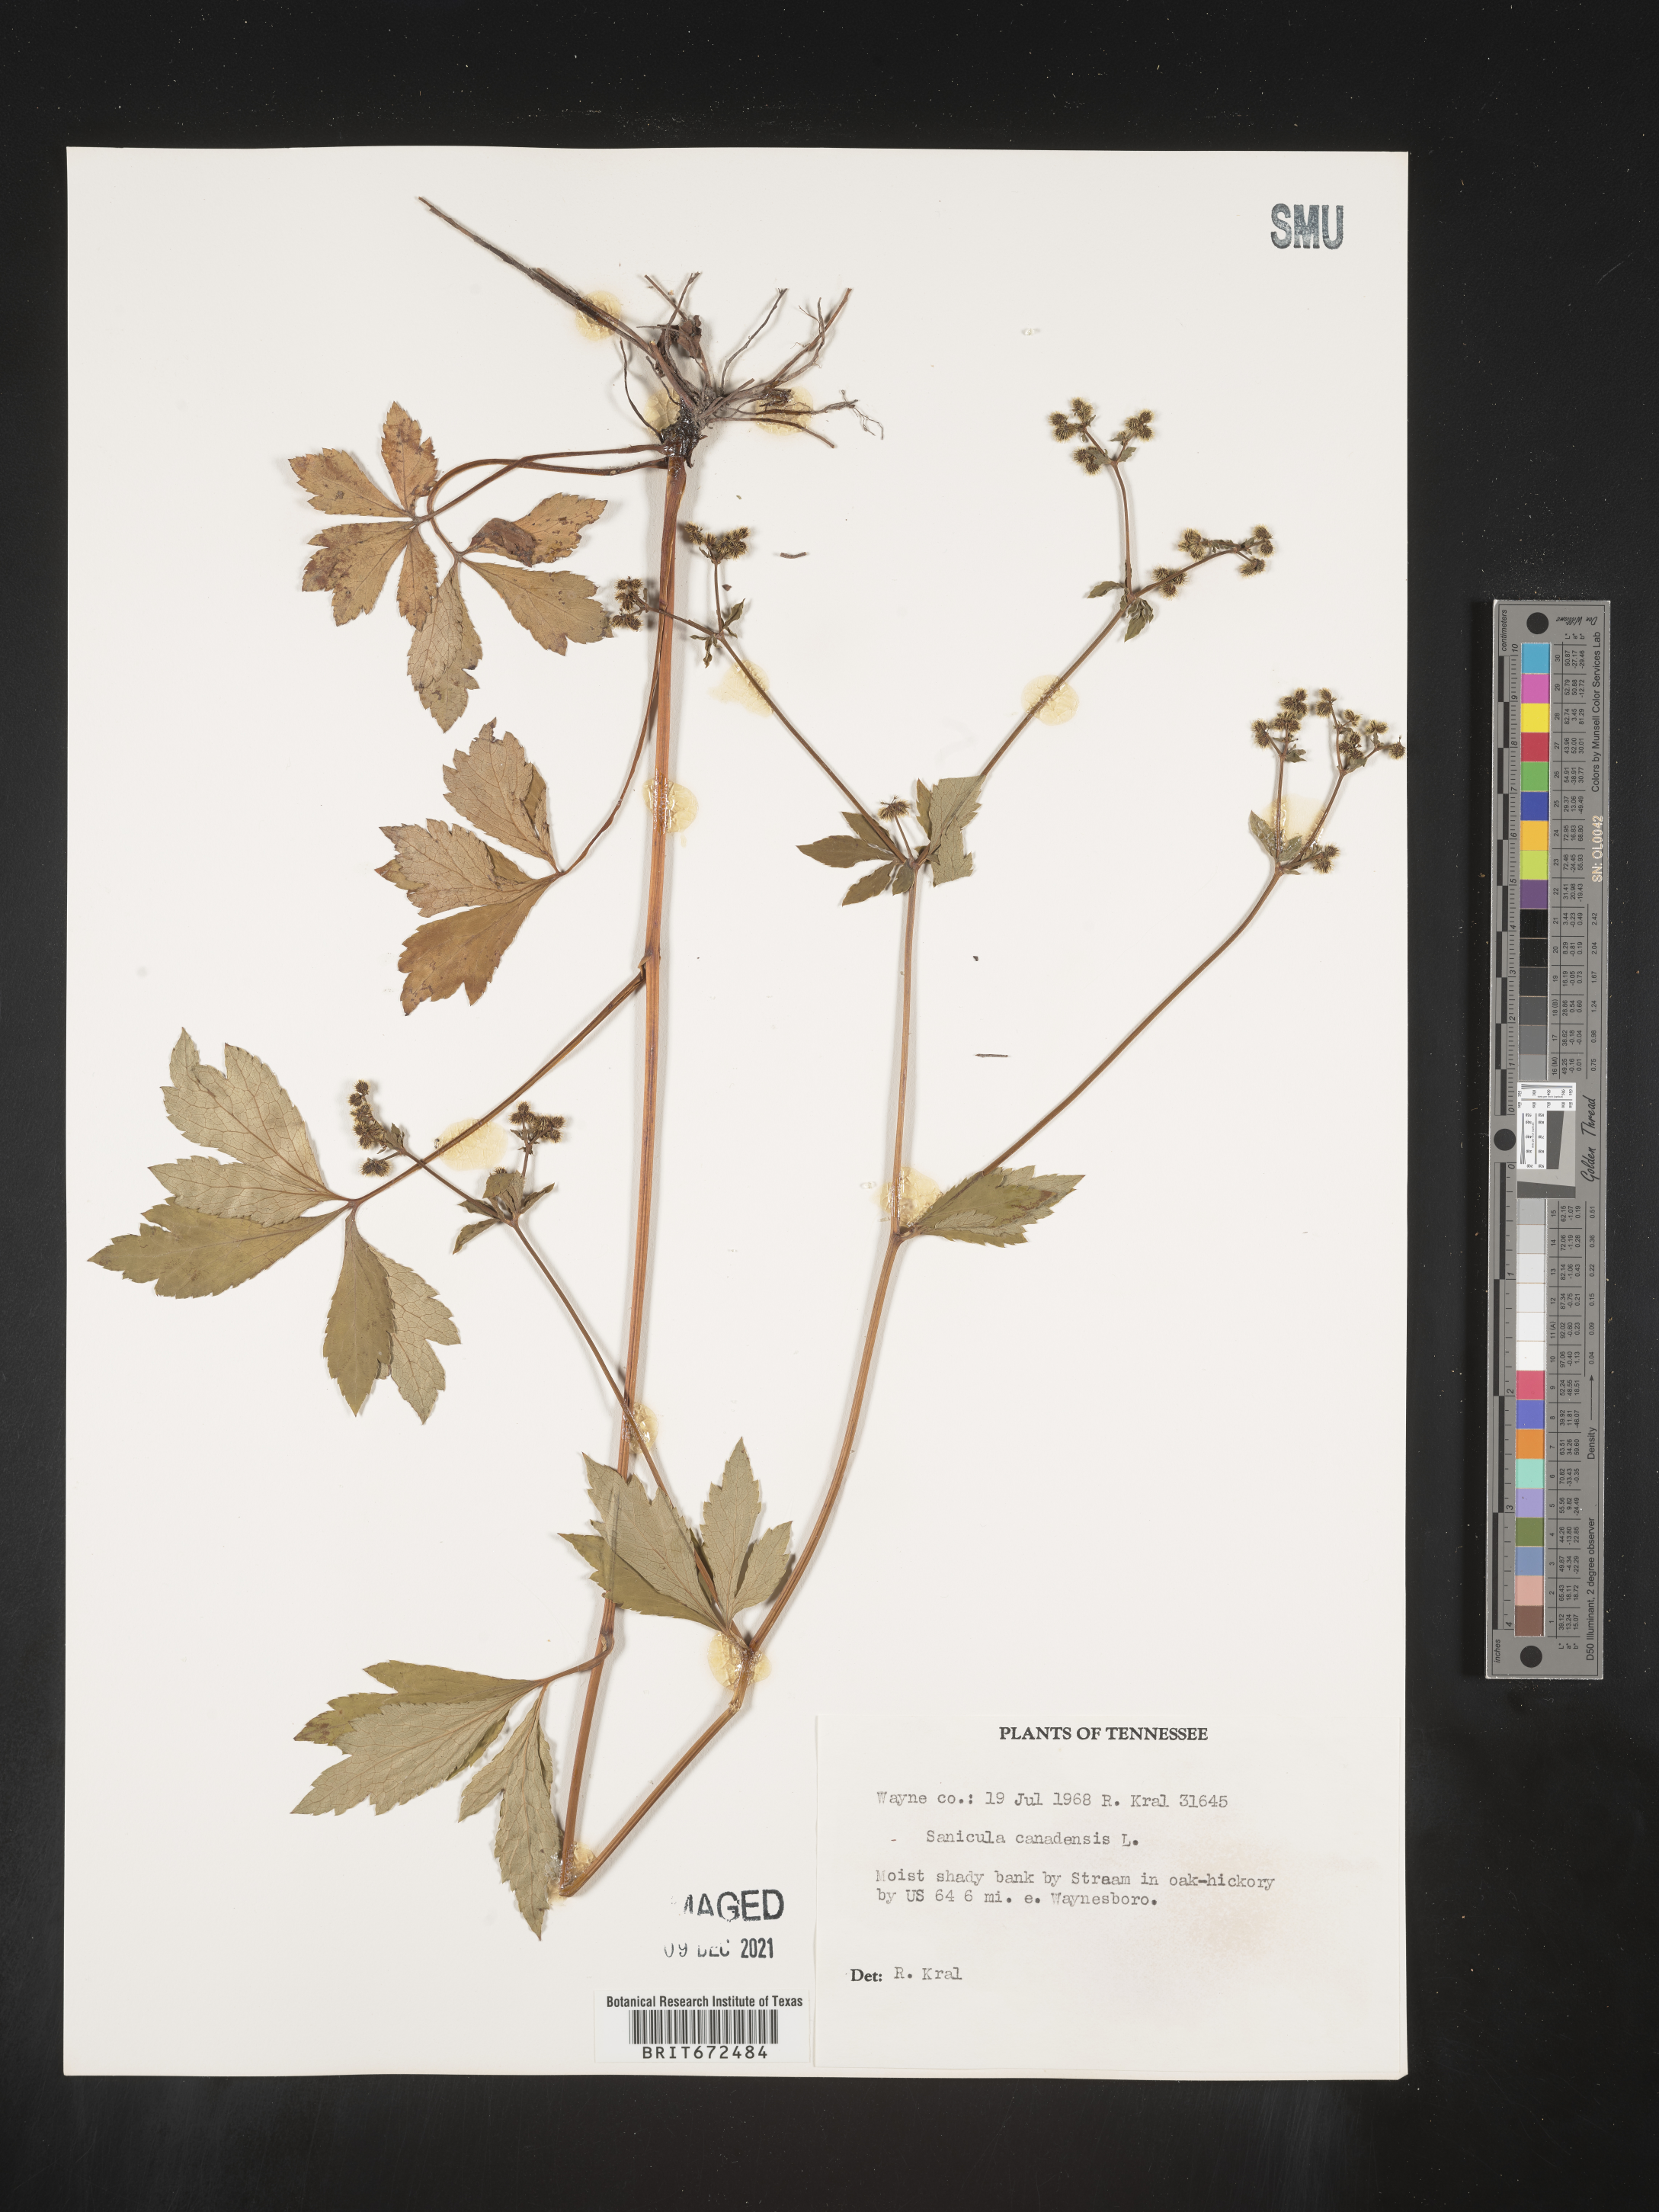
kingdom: Plantae
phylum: Tracheophyta
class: Magnoliopsida
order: Apiales
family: Apiaceae
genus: Sanicula
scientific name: Sanicula canadensis
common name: Canada sanicle
